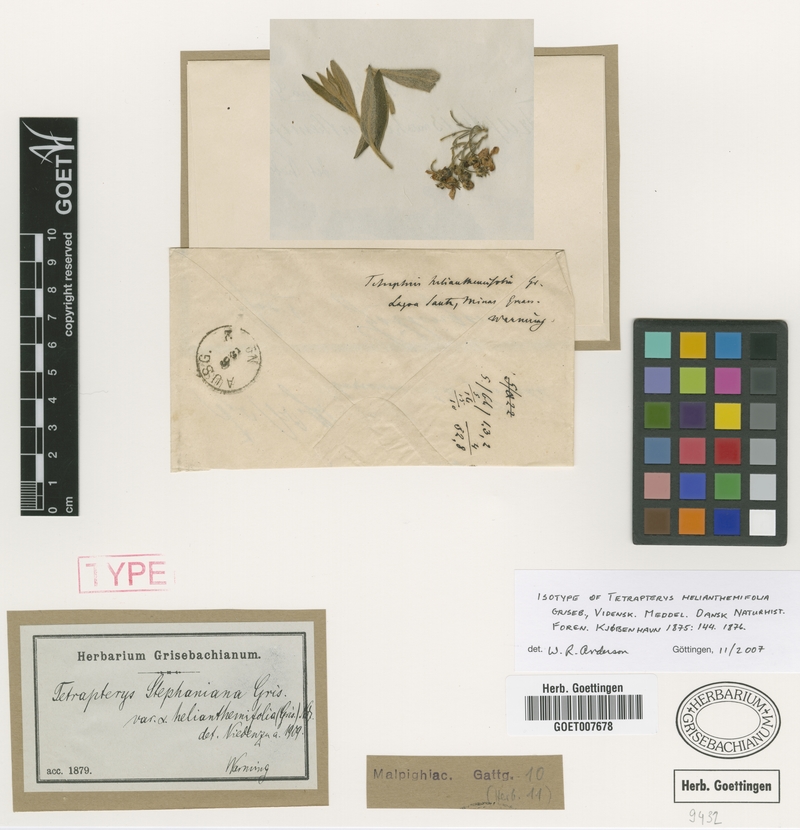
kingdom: Plantae
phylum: Tracheophyta
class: Magnoliopsida
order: Malpighiales
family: Malpighiaceae
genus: Tetrapterys
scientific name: Tetrapterys helianthemifolia
